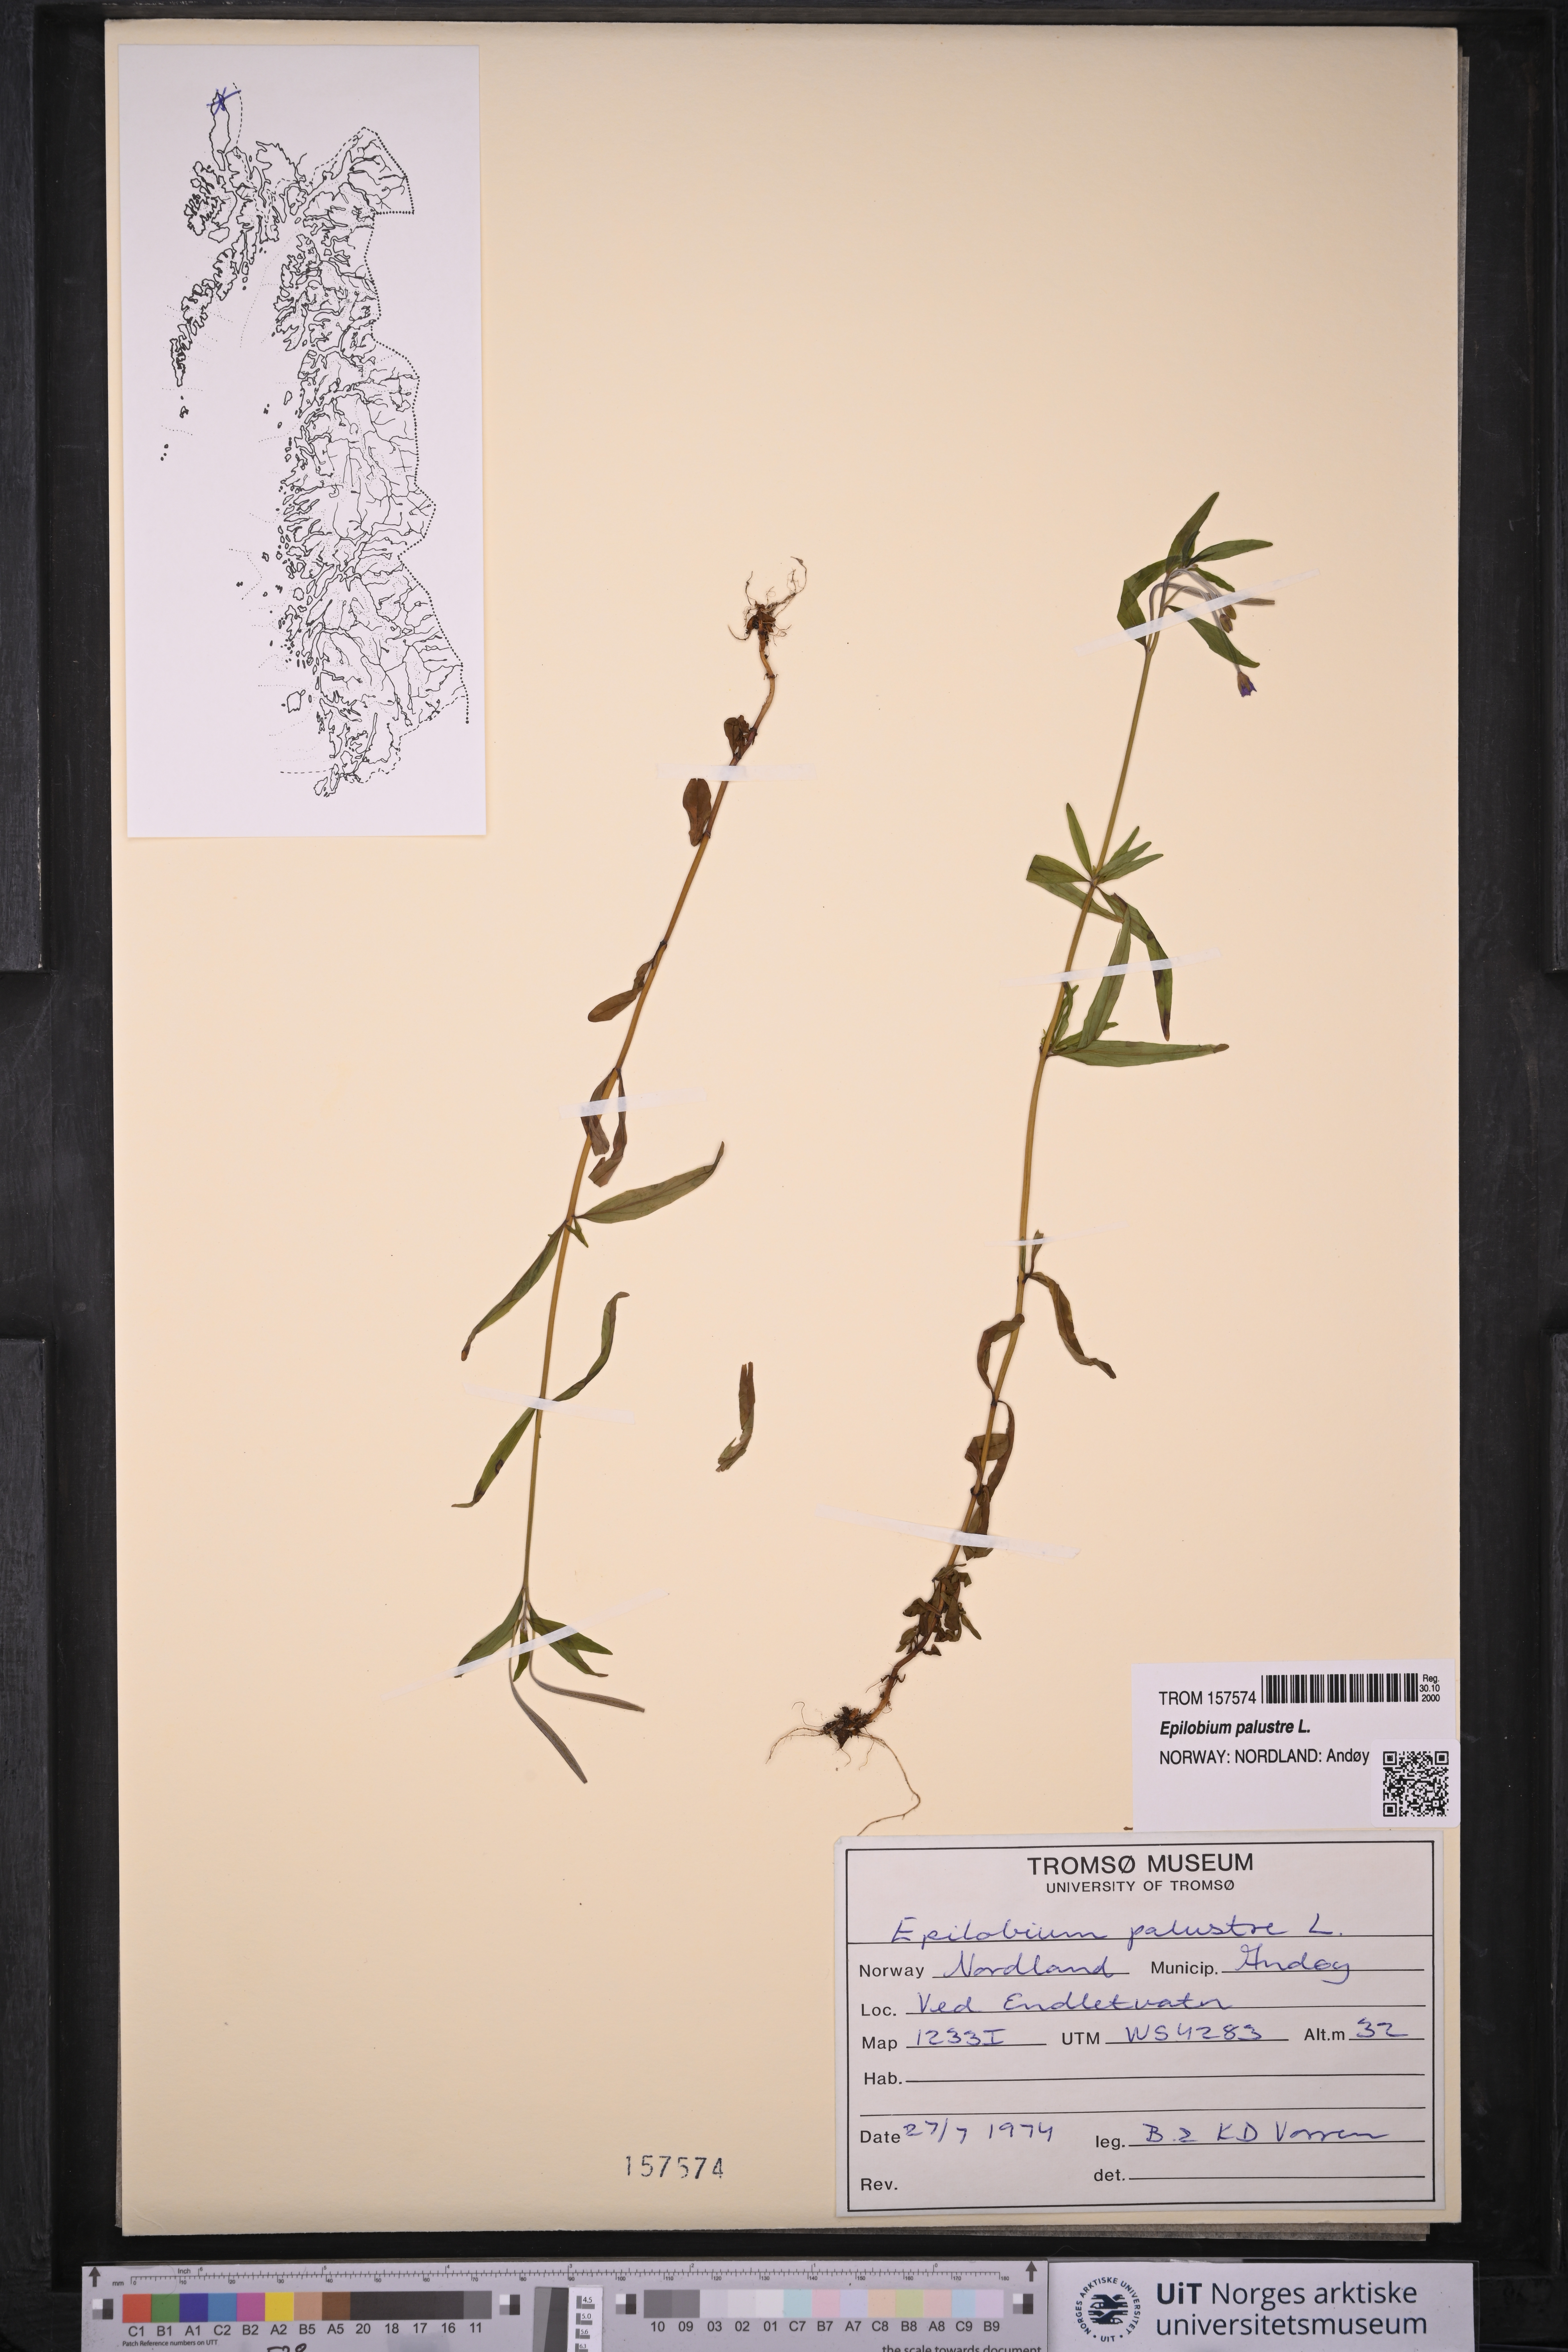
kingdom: Plantae
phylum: Tracheophyta
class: Magnoliopsida
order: Myrtales
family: Onagraceae
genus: Epilobium
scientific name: Epilobium palustre
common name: Marsh willowherb
